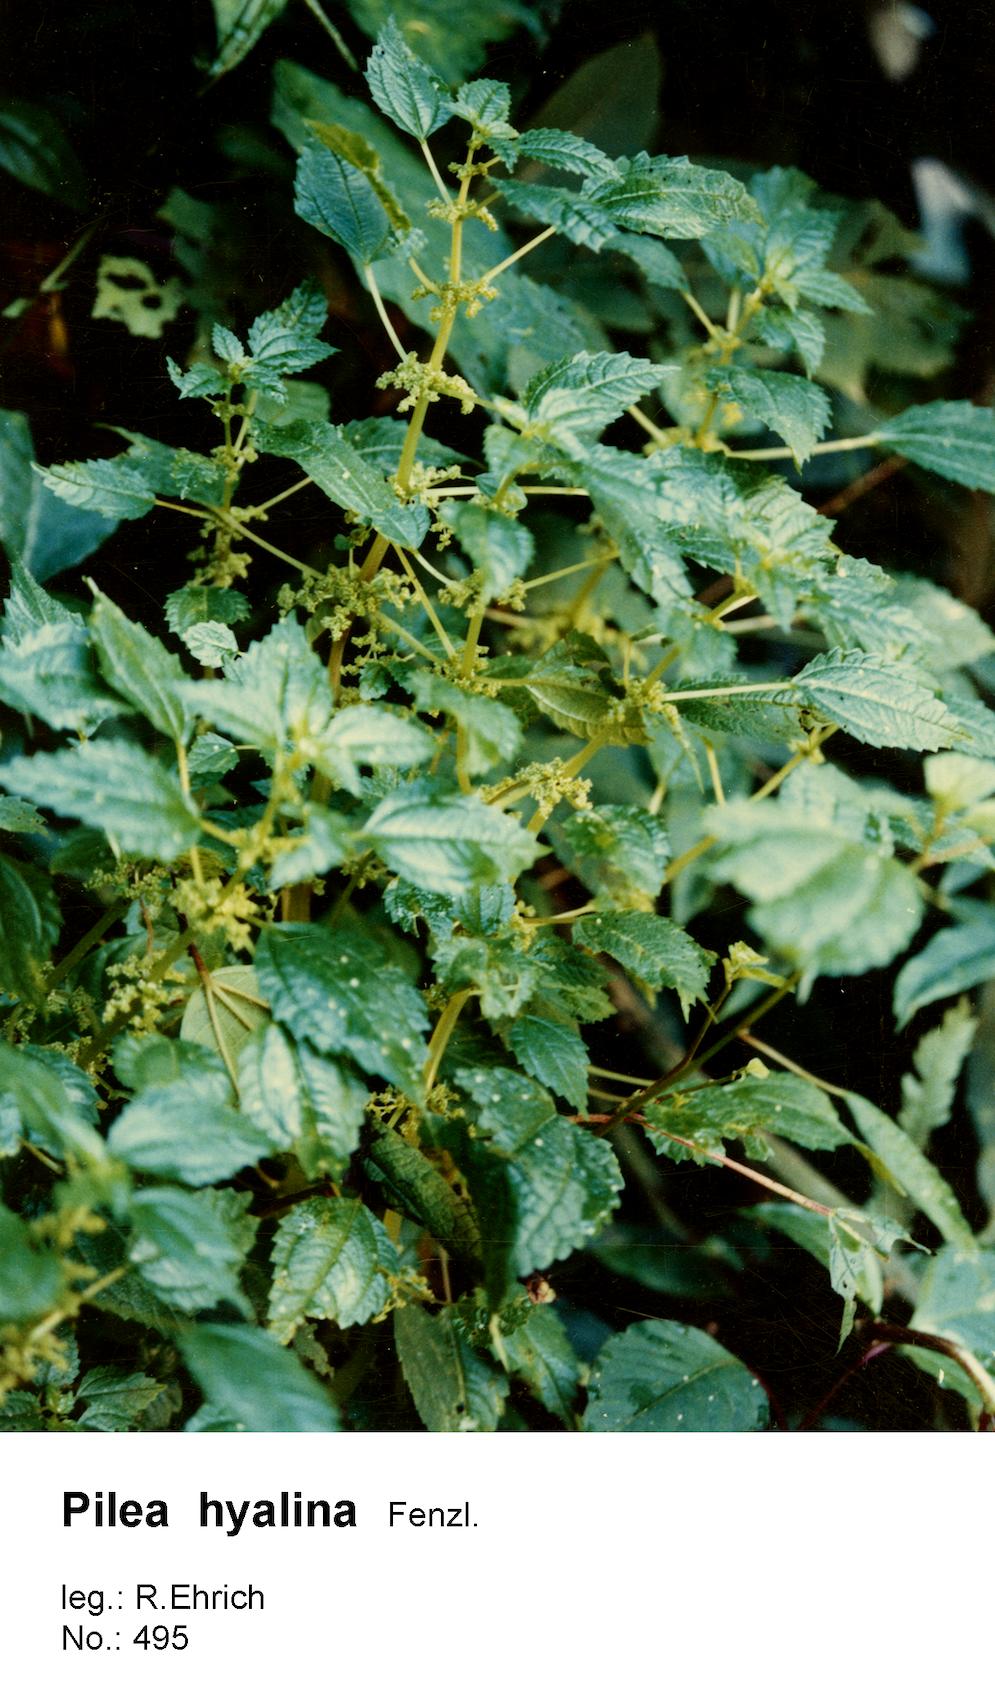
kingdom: Plantae
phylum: Tracheophyta
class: Magnoliopsida
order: Rosales
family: Urticaceae
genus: Pilea
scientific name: Pilea hyalina
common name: Virdrillo
